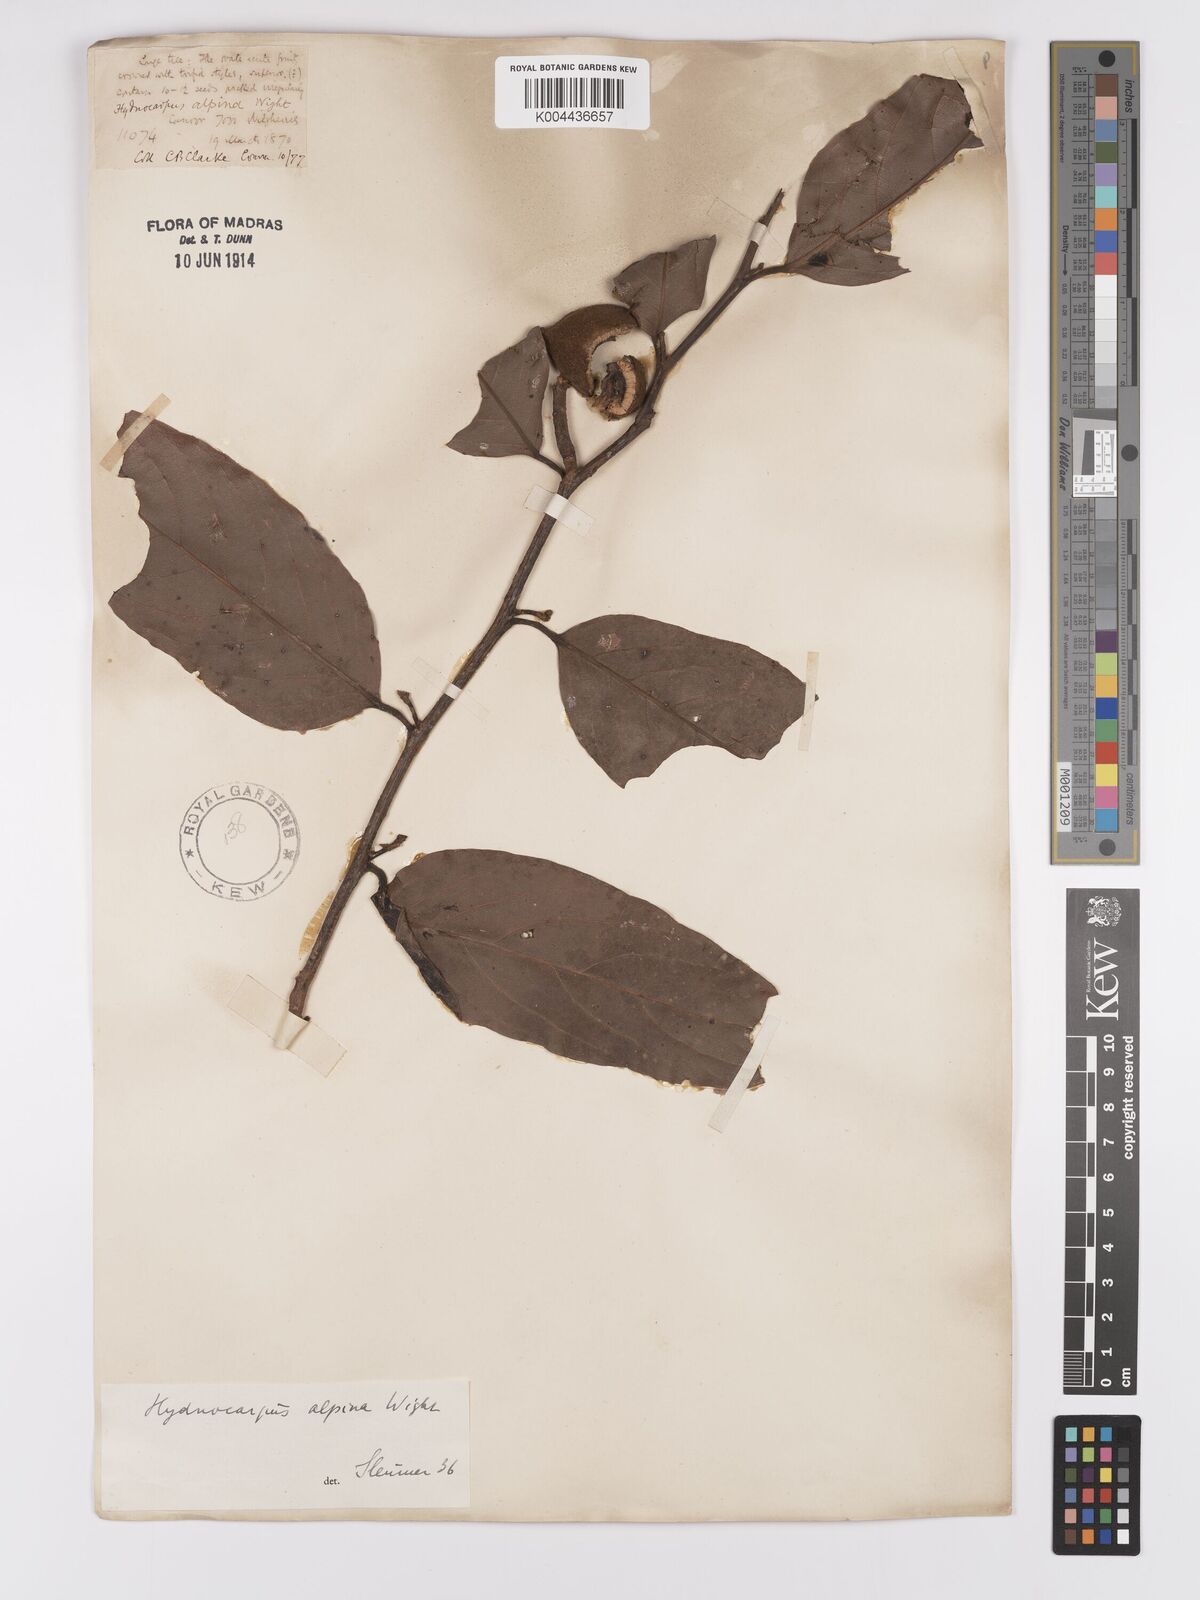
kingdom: Plantae
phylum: Tracheophyta
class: Magnoliopsida
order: Malpighiales
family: Achariaceae
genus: Hydnocarpus
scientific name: Hydnocarpus alpinus
